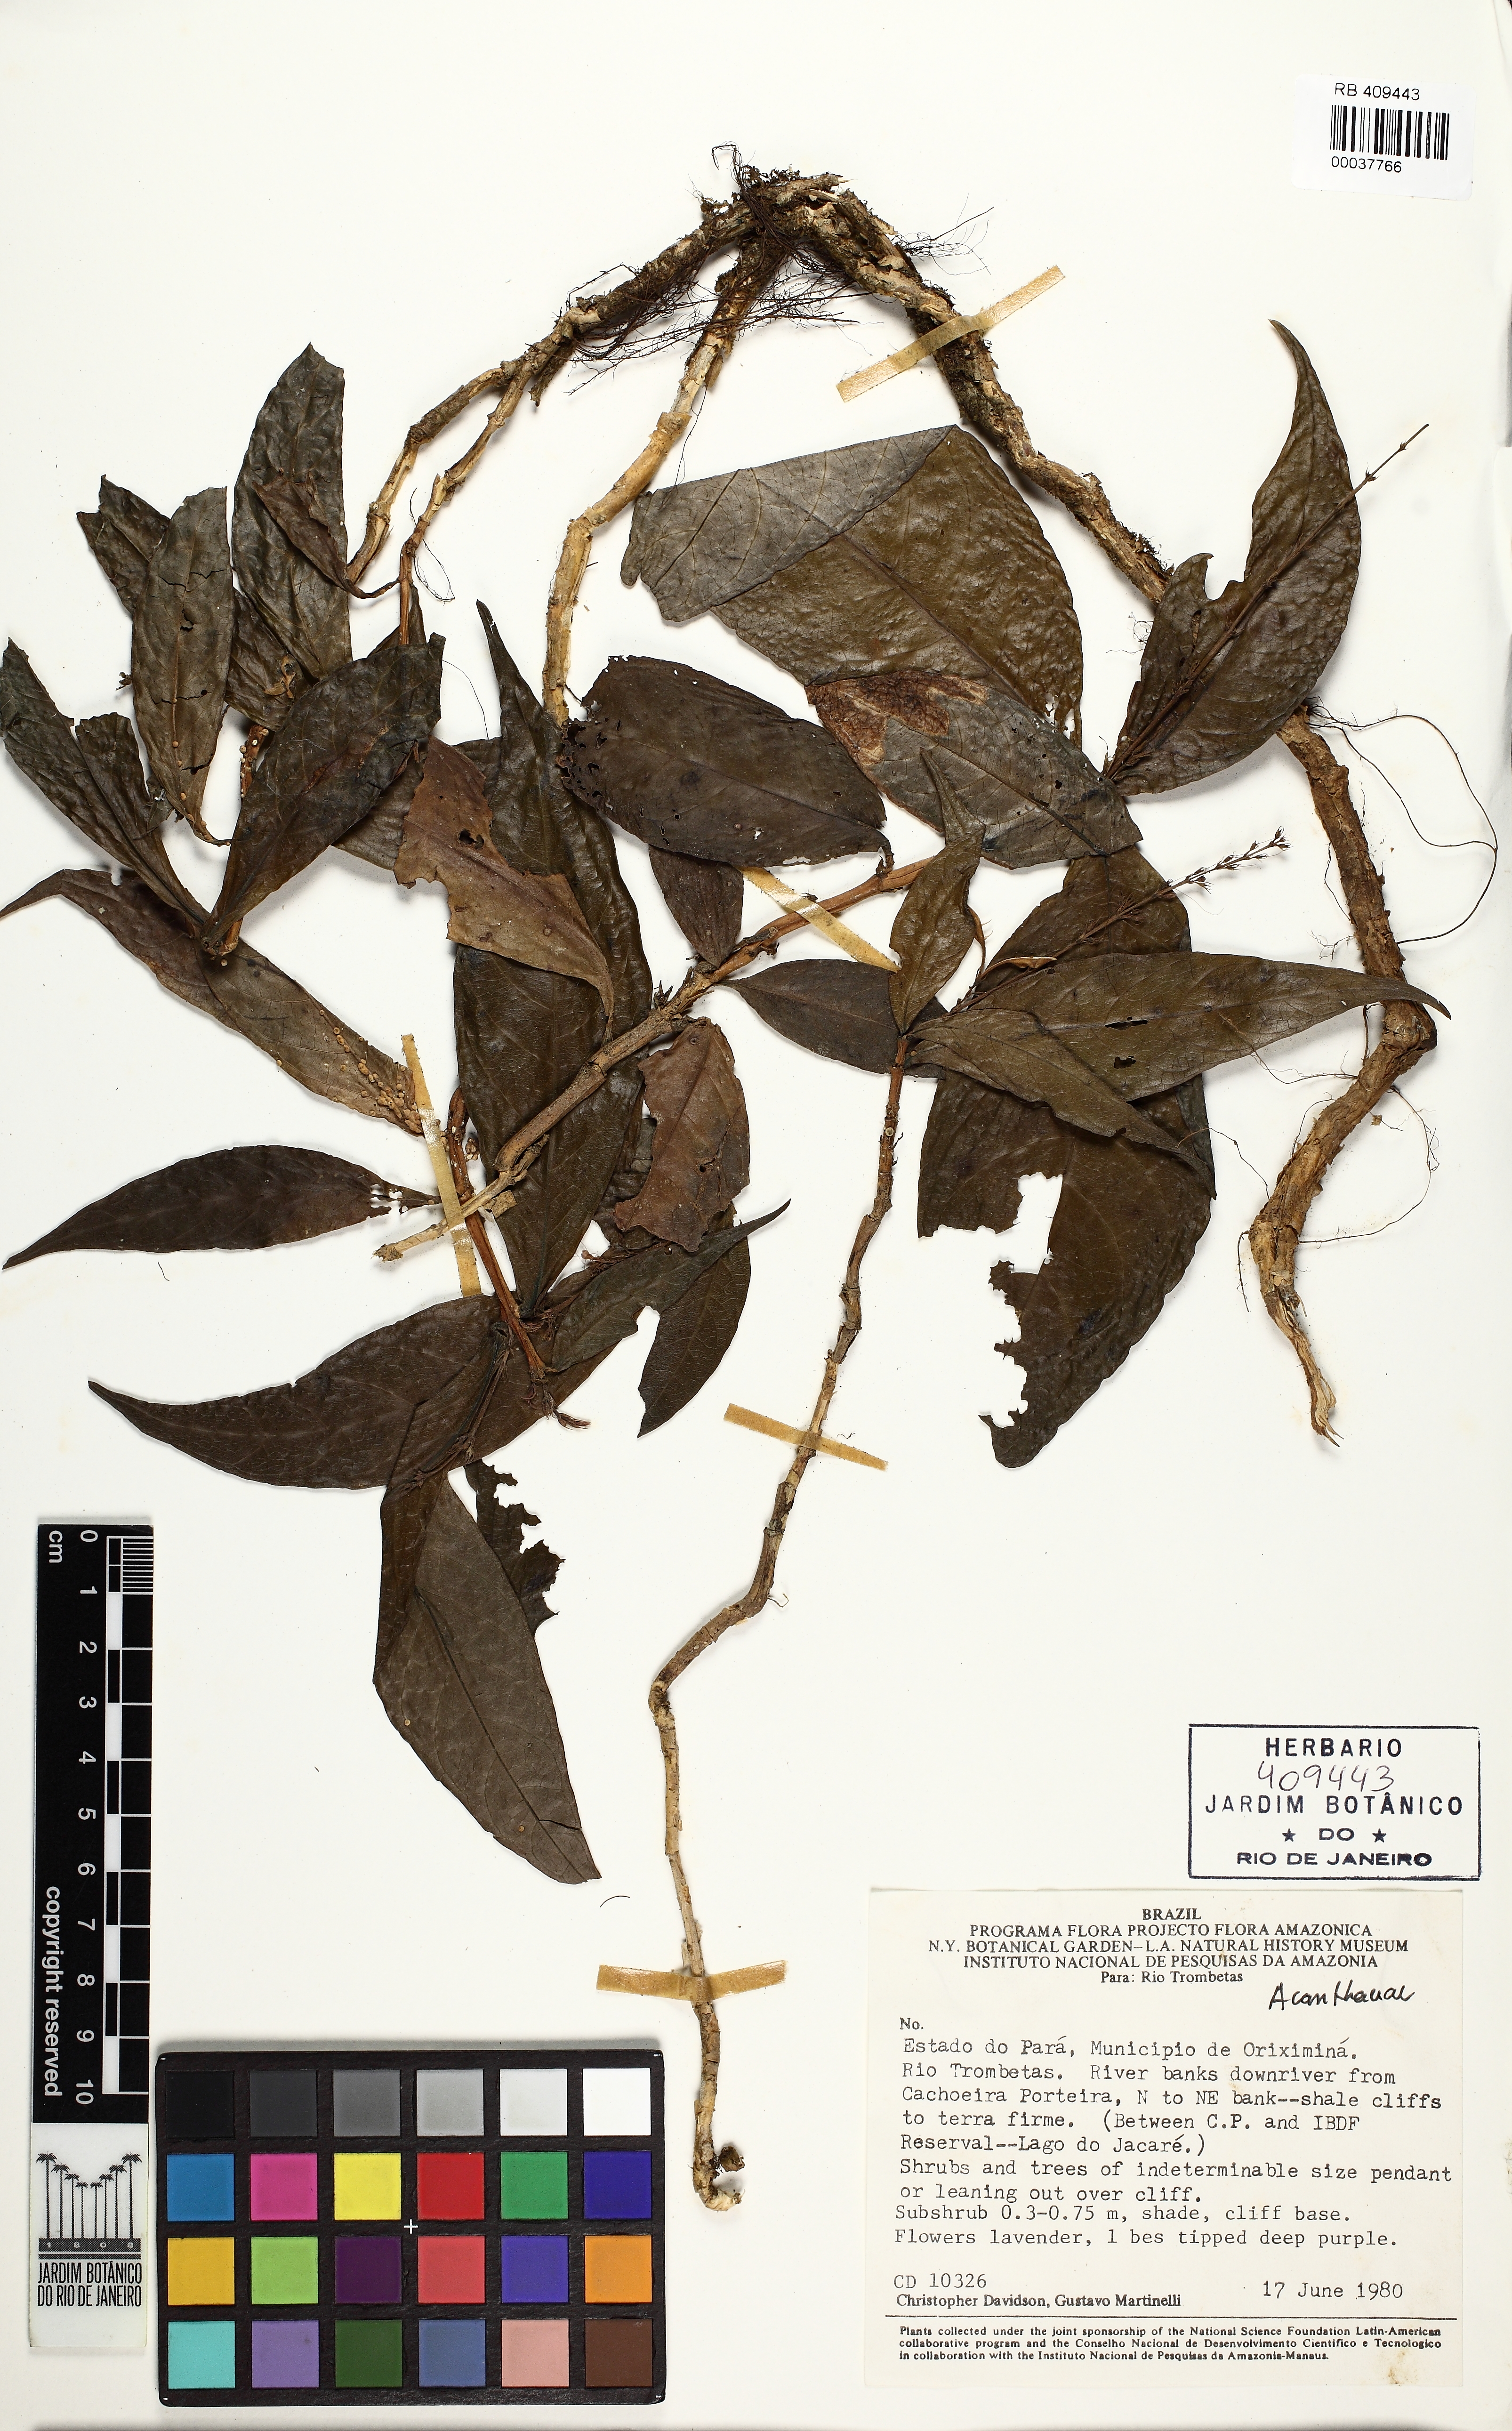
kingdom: Plantae
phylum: Tracheophyta
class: Magnoliopsida
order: Lamiales
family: Acanthaceae
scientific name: Acanthaceae
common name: Acanthaceae
